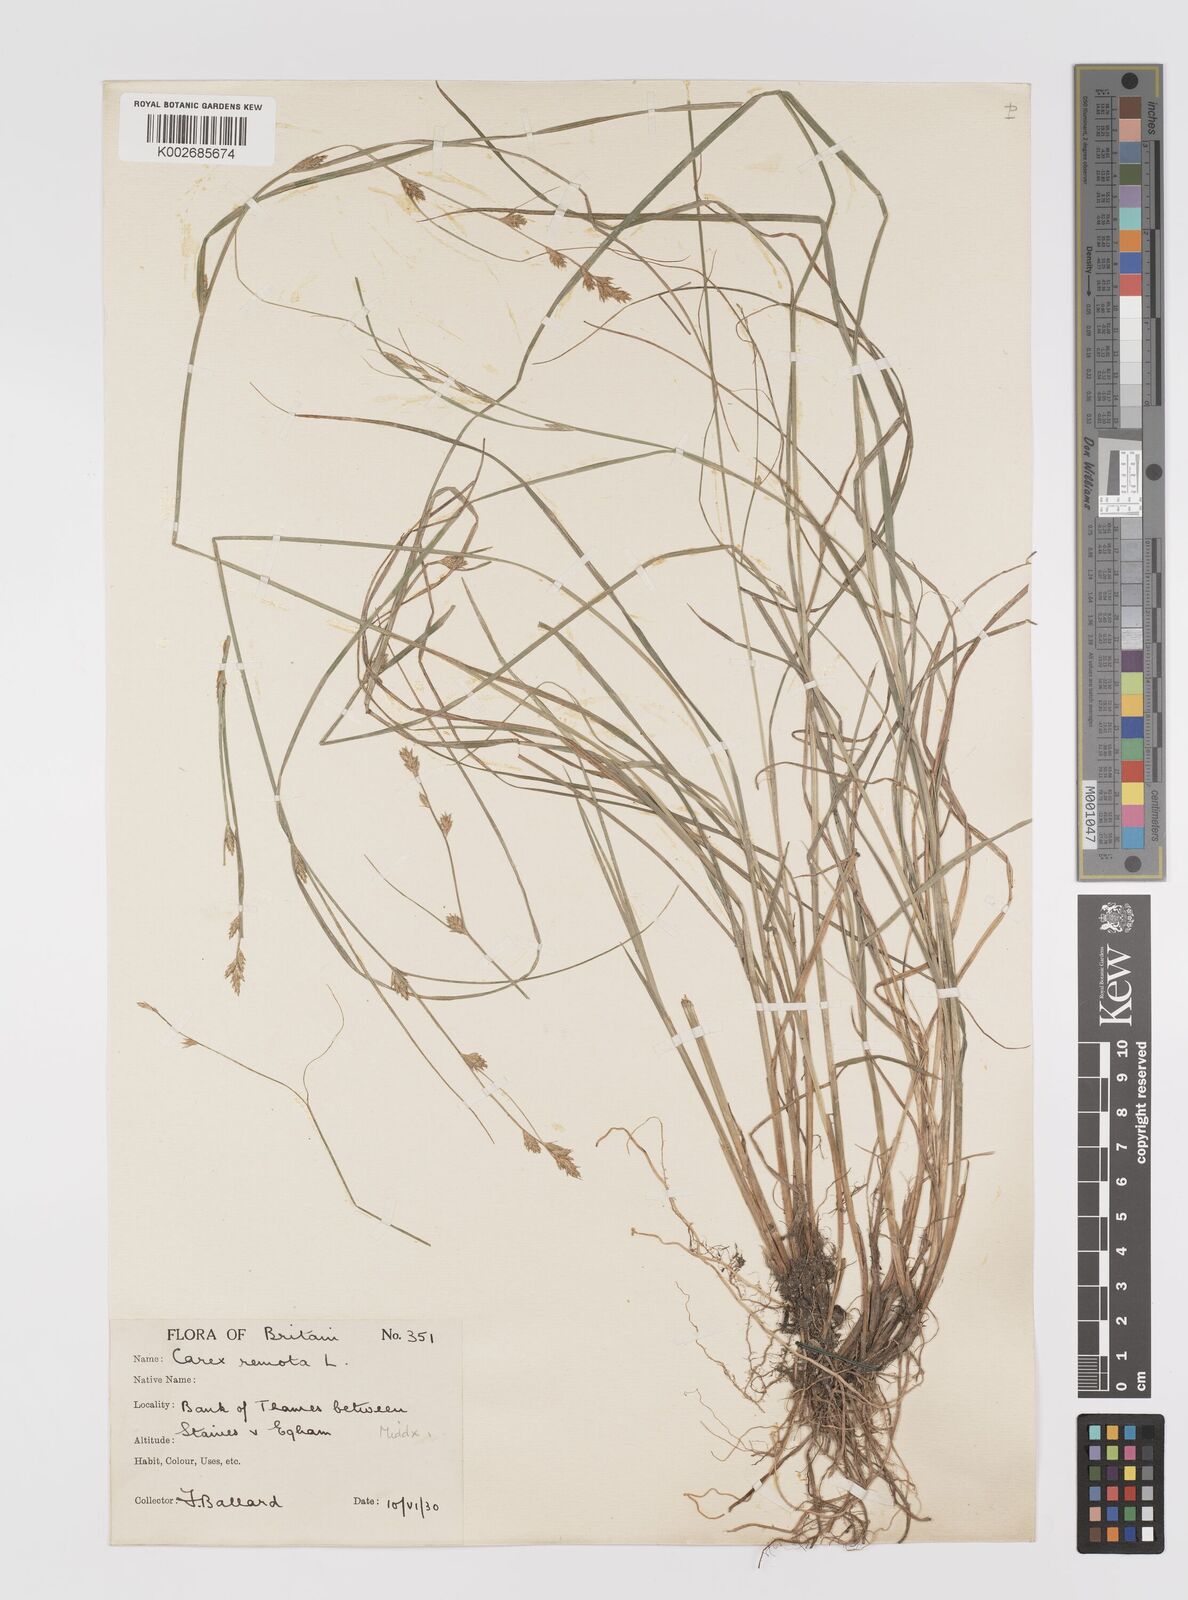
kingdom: Plantae
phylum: Tracheophyta
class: Liliopsida
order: Poales
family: Cyperaceae
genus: Carex
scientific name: Carex remota
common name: Remote sedge
